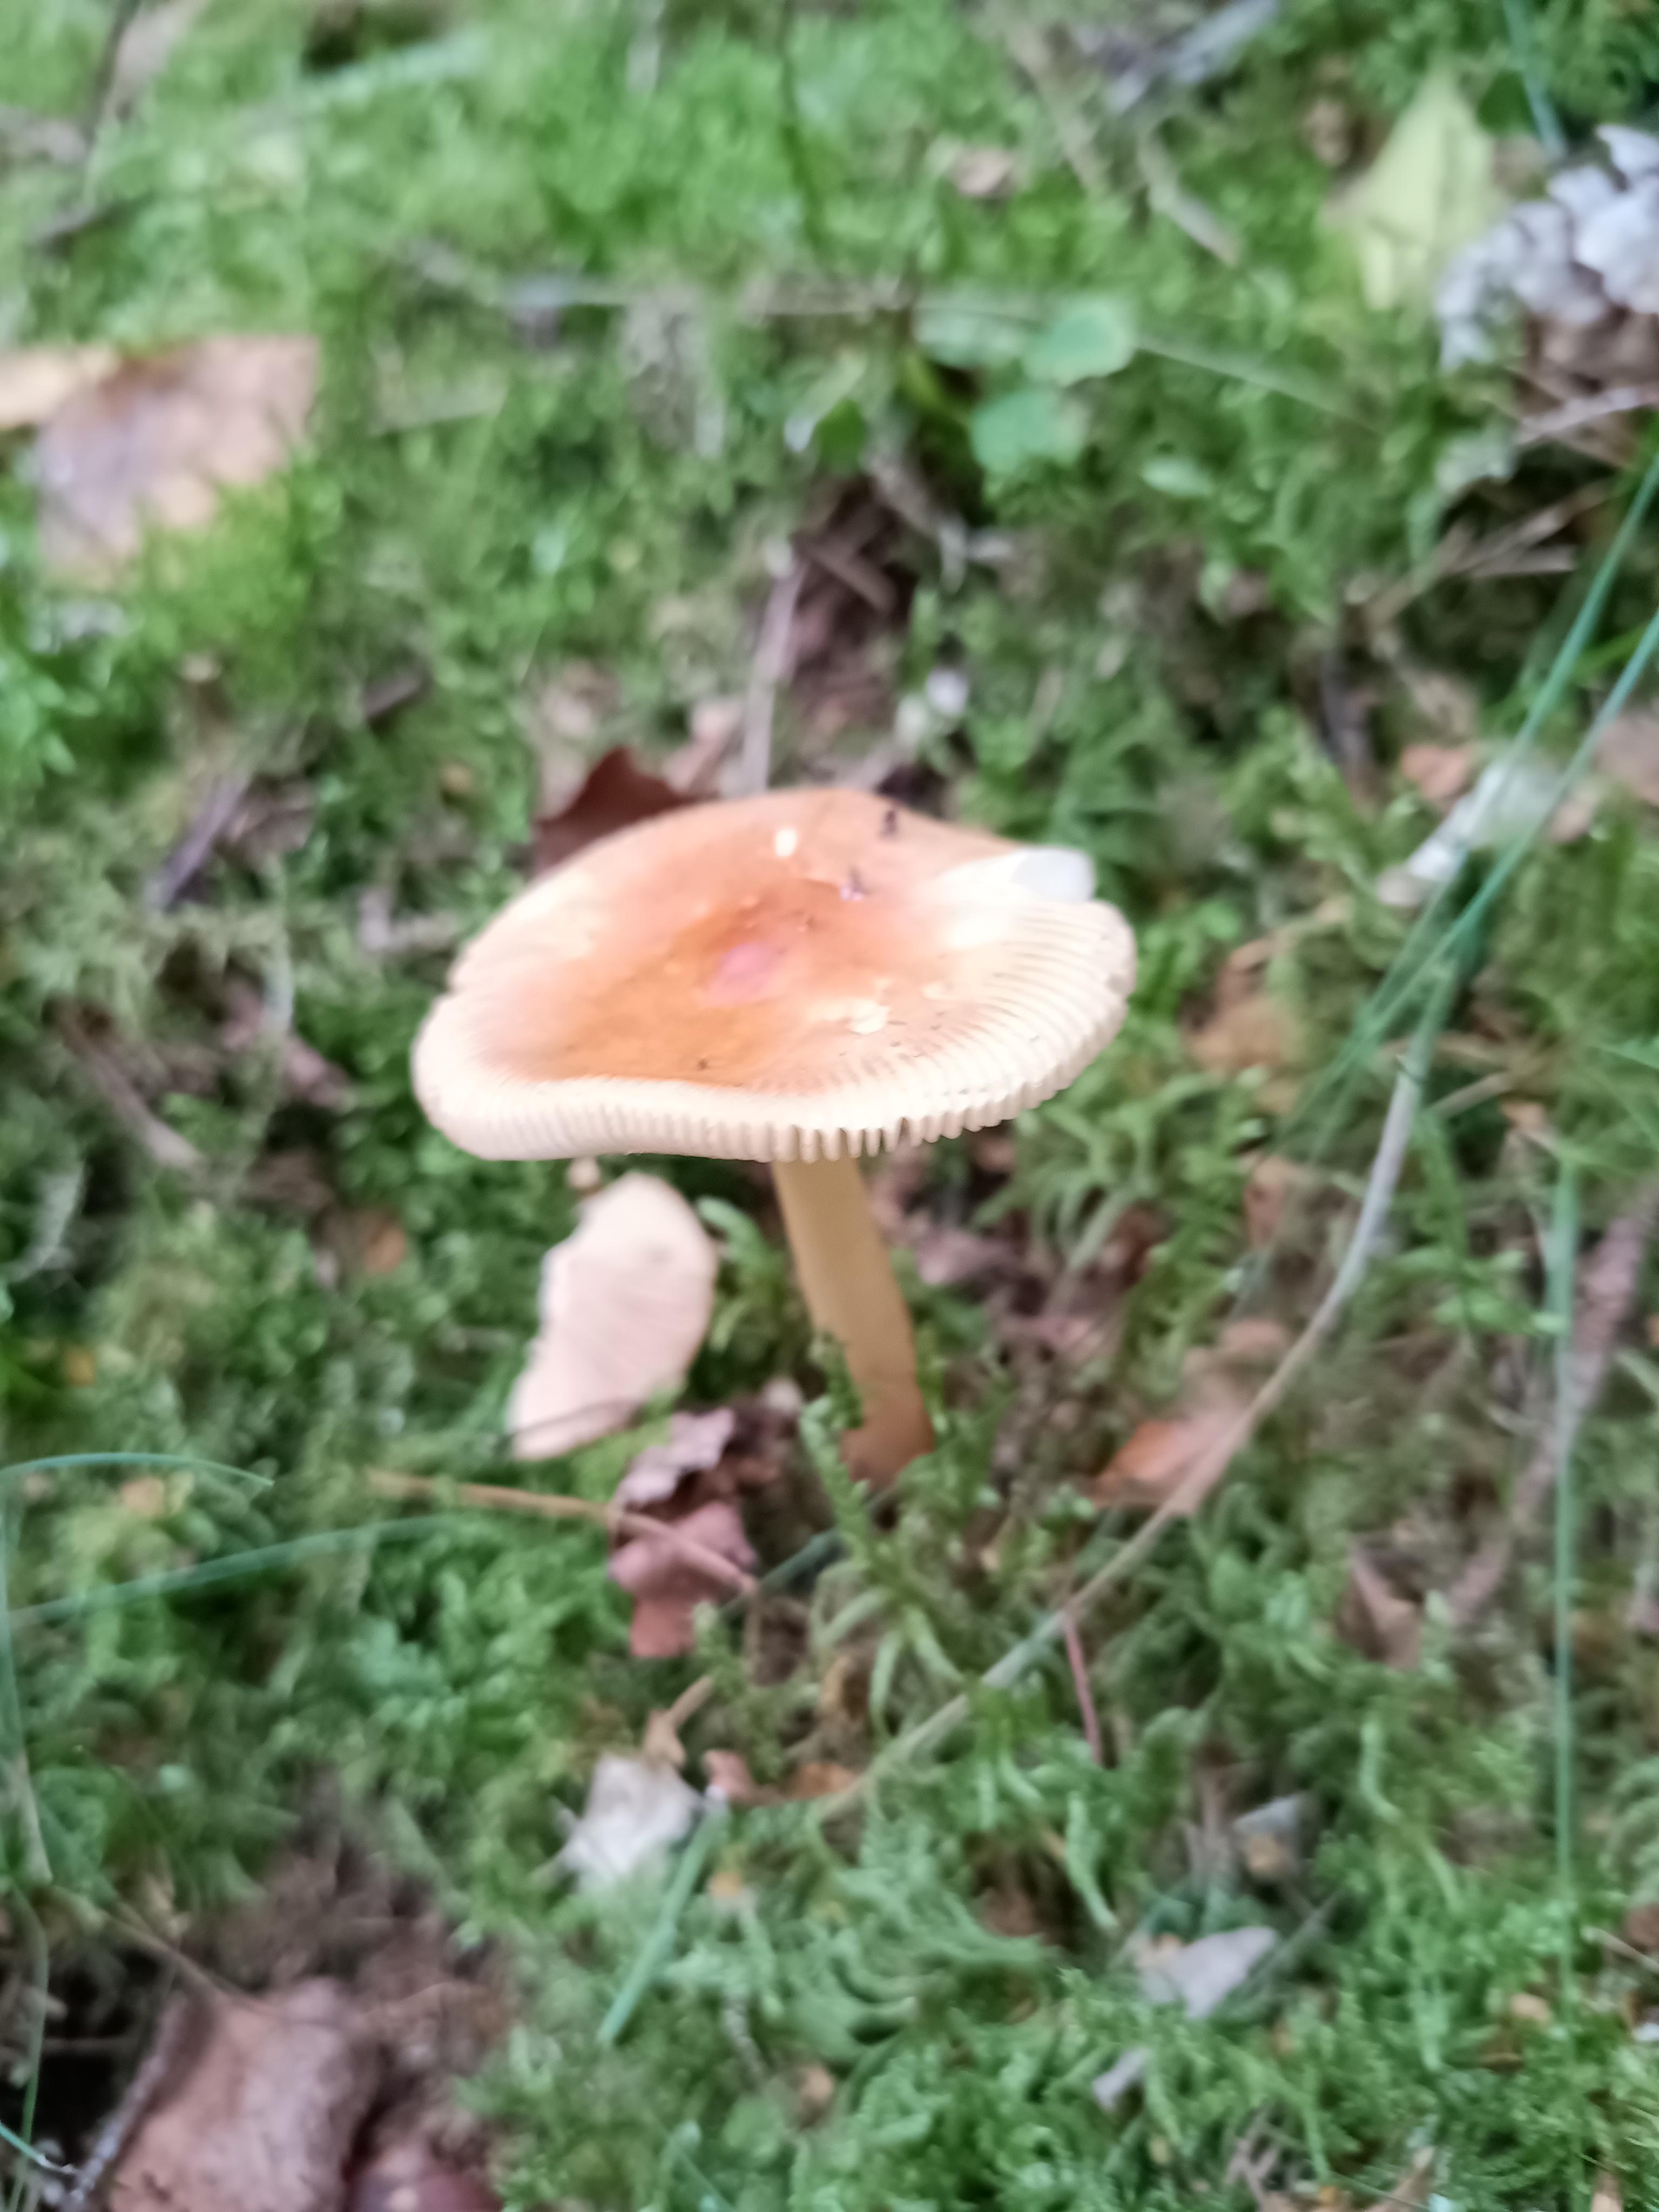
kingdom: Fungi
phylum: Basidiomycota
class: Agaricomycetes
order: Agaricales
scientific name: Agaricales
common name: champignonordenen
